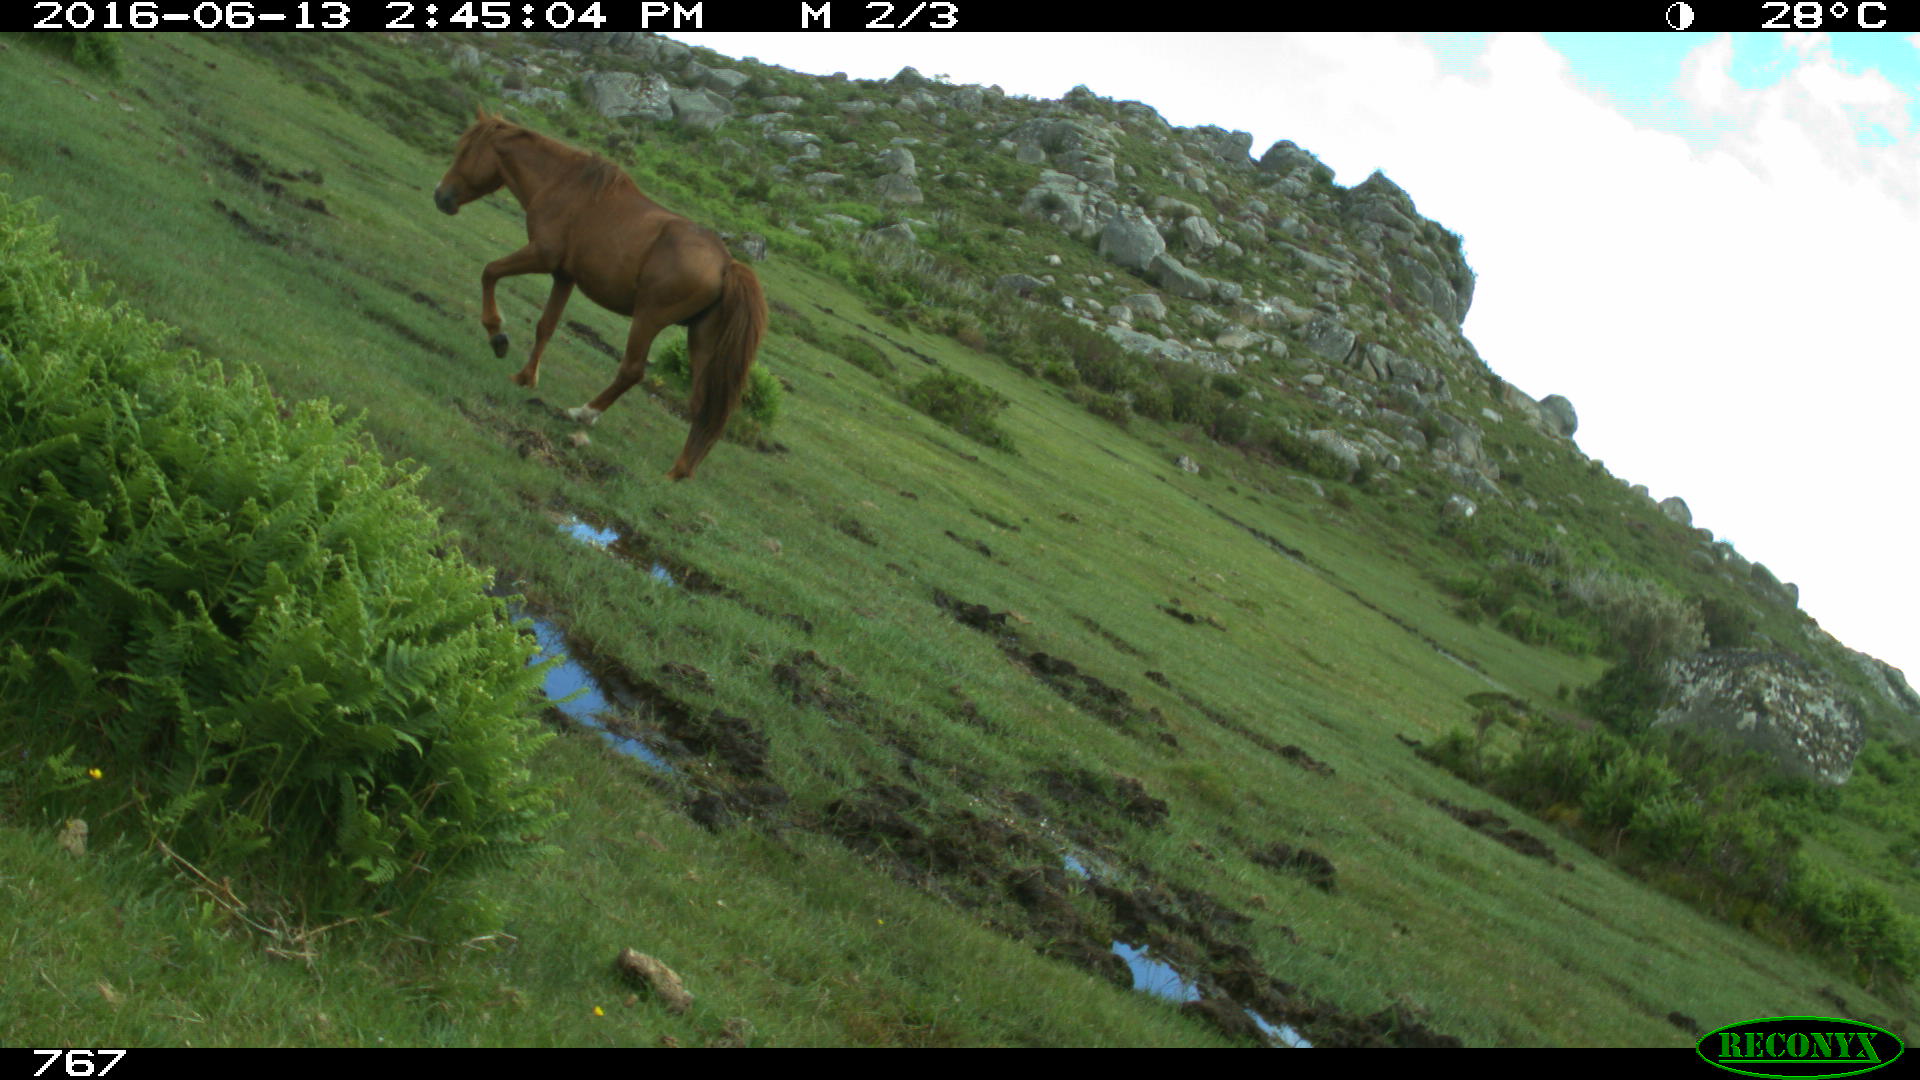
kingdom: Animalia
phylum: Chordata
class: Mammalia
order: Perissodactyla
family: Equidae
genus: Equus
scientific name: Equus caballus
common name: Horse
